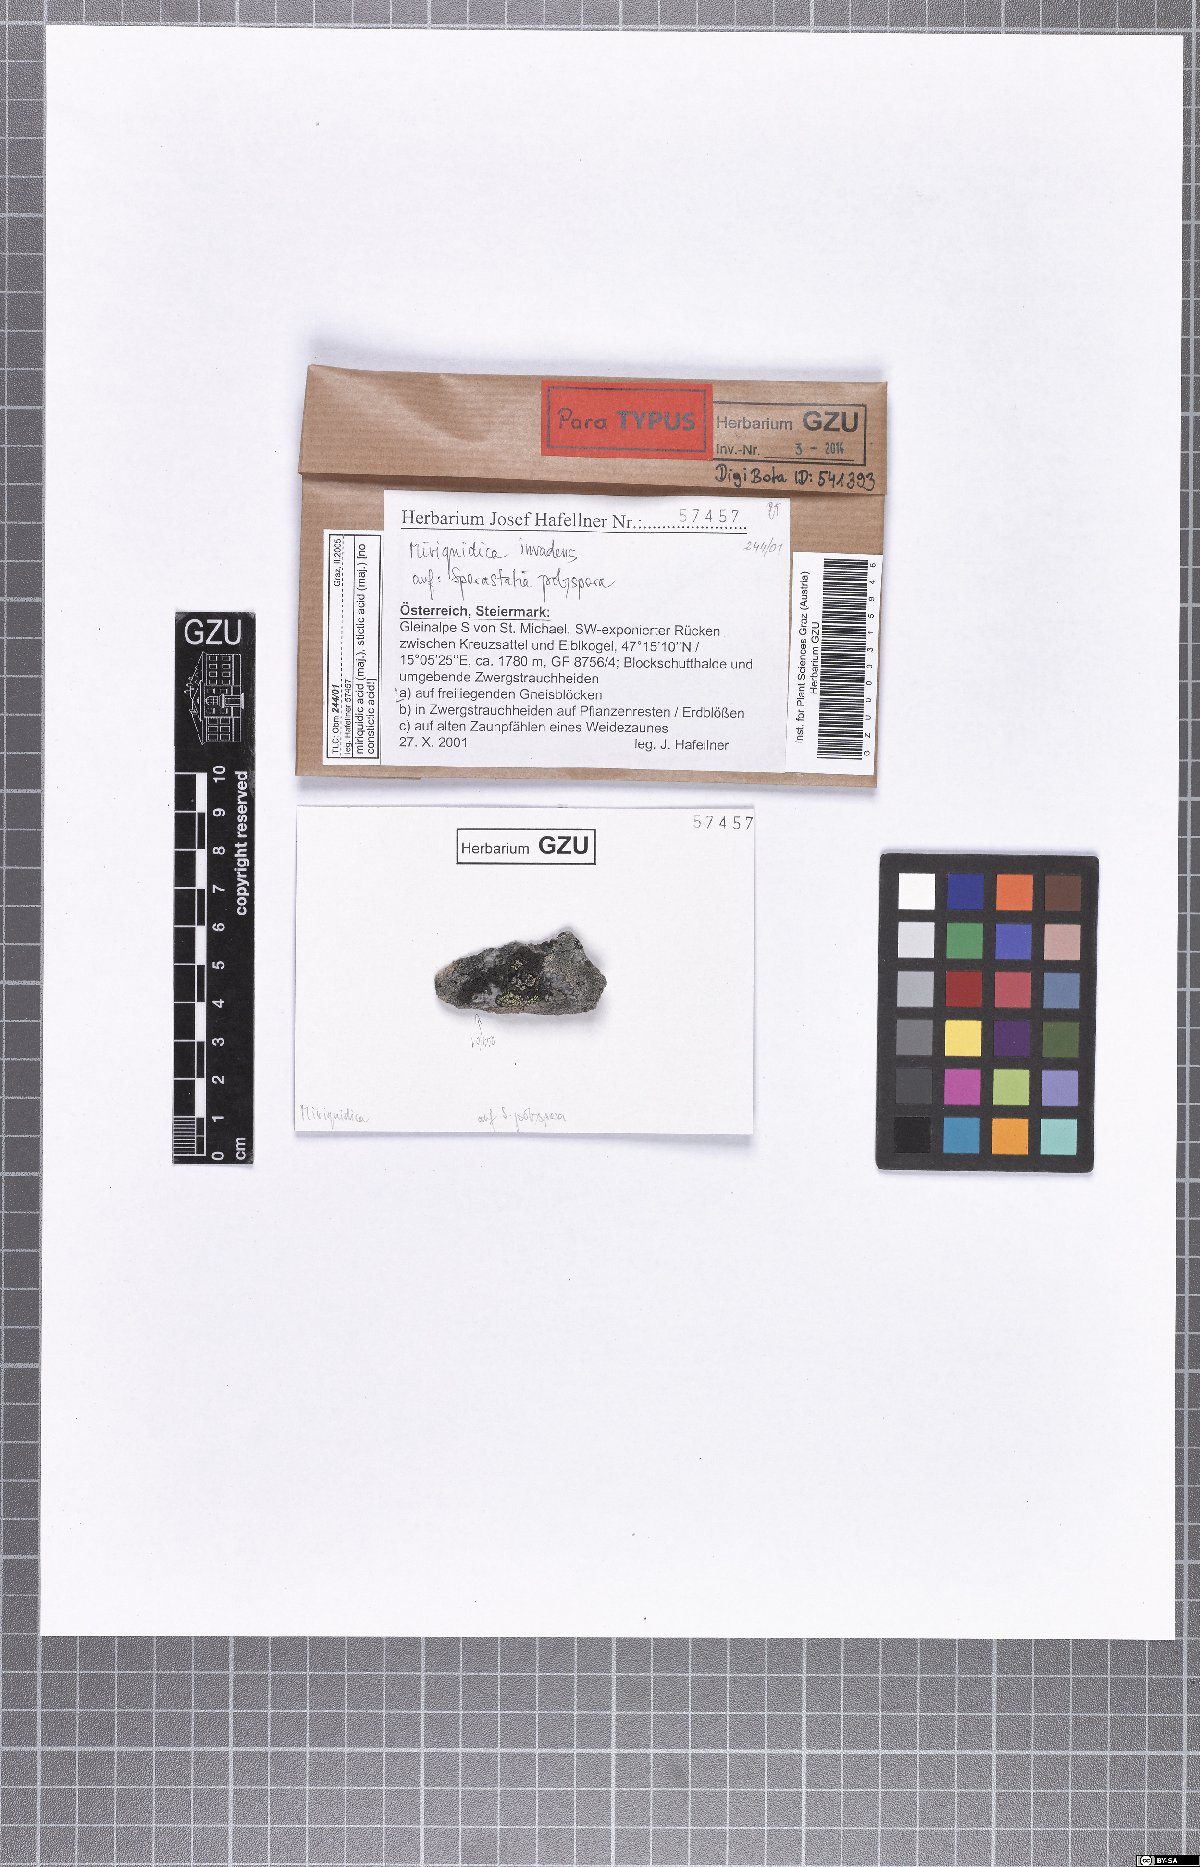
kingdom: Fungi
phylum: Ascomycota
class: Lecanoromycetes
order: Lecanorales
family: Lecanoraceae
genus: Miriquidica
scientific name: Miriquidica invadens
